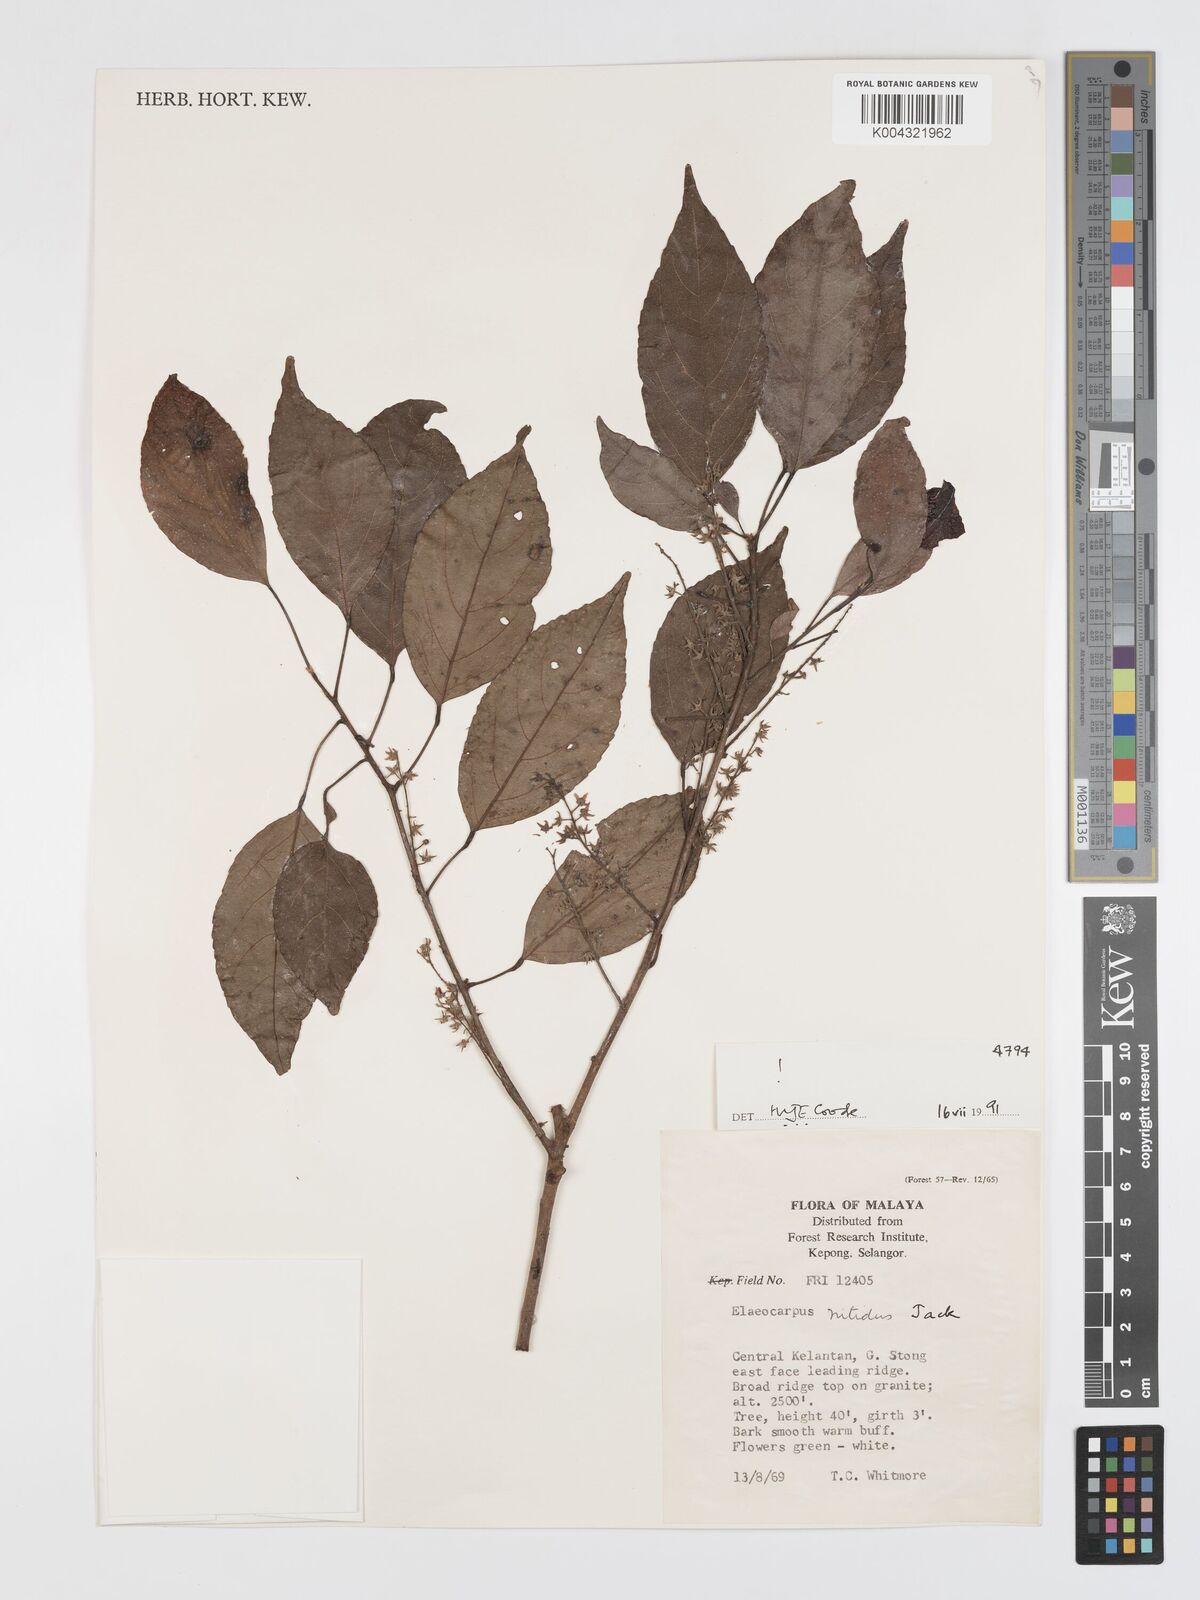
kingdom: Plantae
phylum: Tracheophyta
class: Magnoliopsida
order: Oxalidales
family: Elaeocarpaceae
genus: Elaeocarpus
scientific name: Elaeocarpus nitidus
